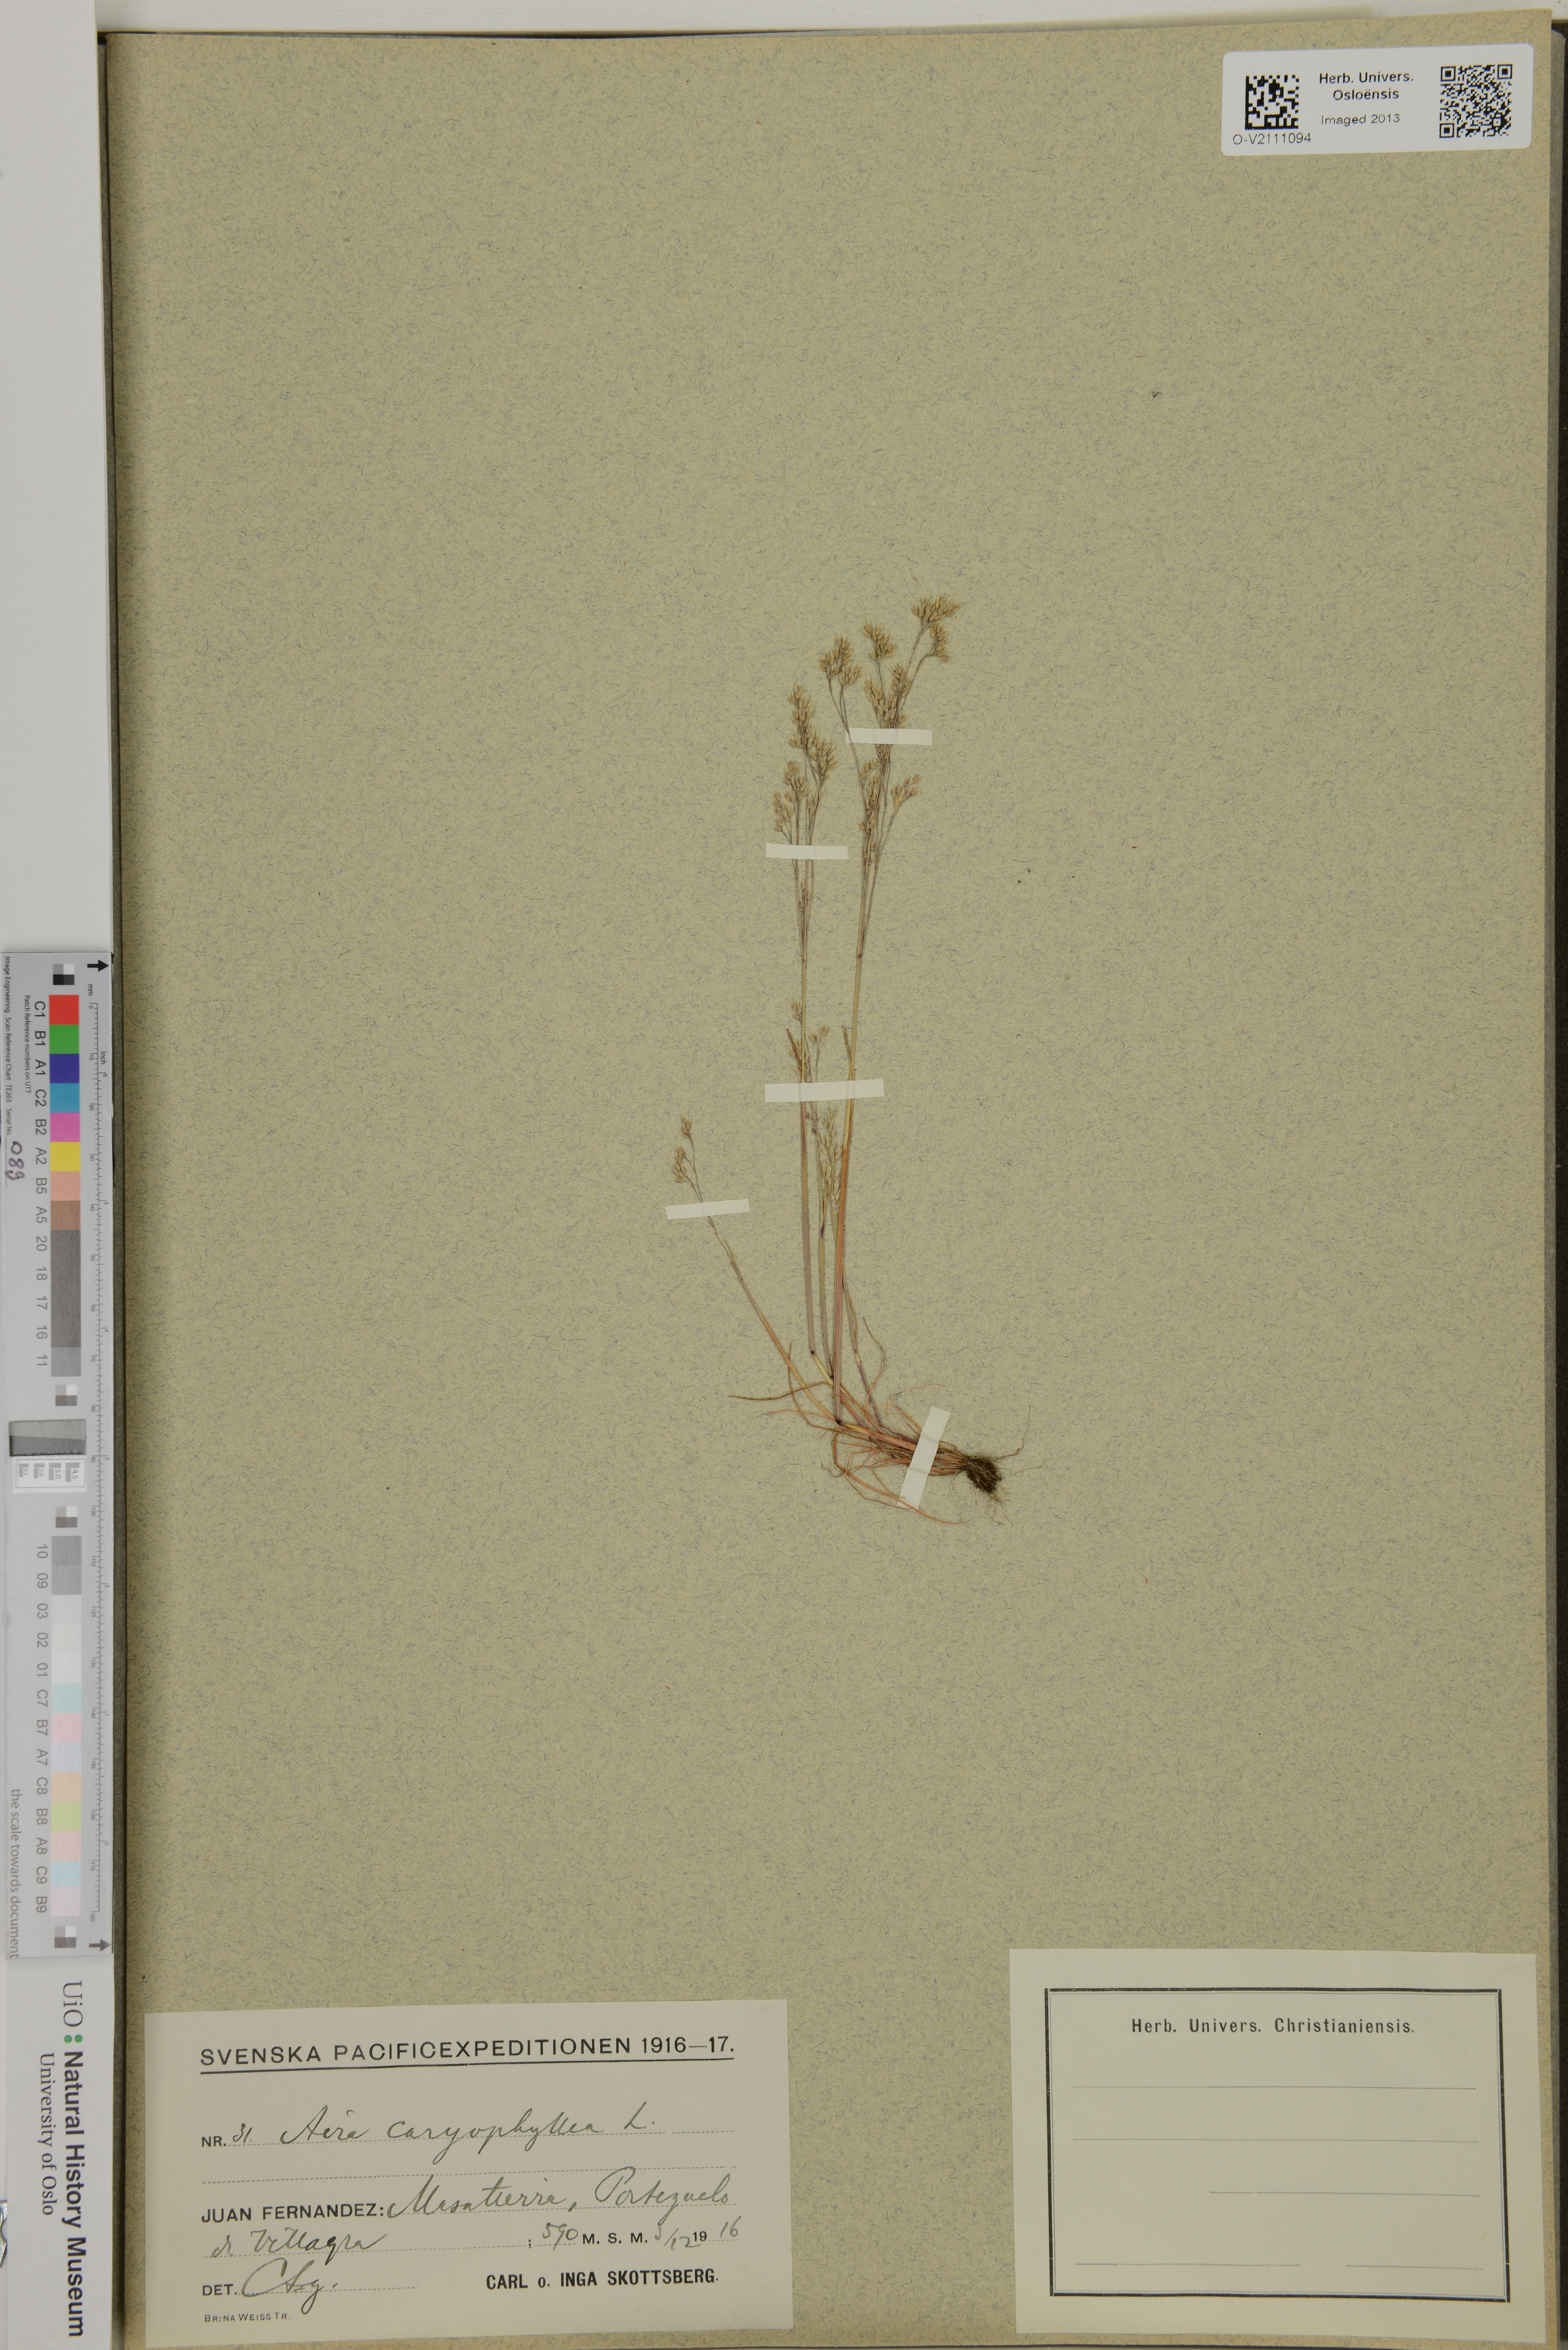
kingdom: Plantae
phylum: Tracheophyta
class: Liliopsida
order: Poales
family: Poaceae
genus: Aira
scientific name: Aira caryophyllea
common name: Silver hairgrass
